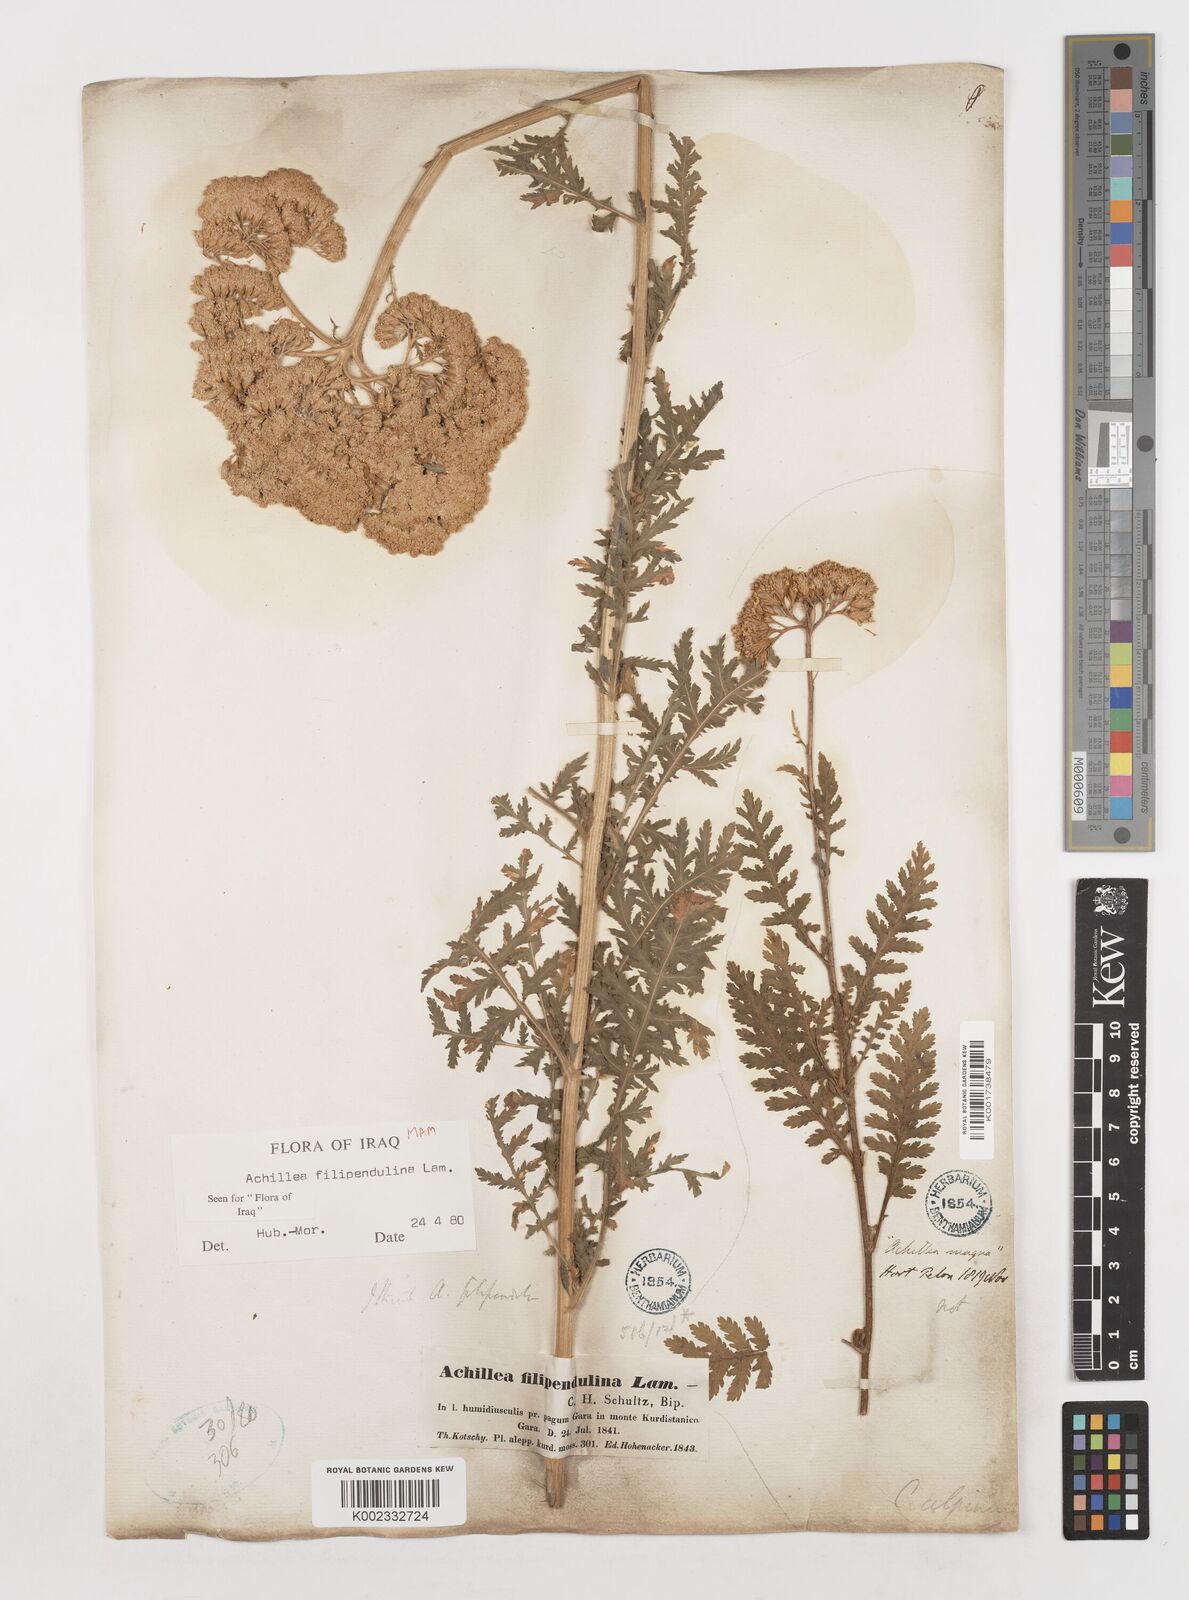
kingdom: Plantae
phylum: Tracheophyta
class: Magnoliopsida
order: Asterales
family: Asteraceae
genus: Achillea
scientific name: Achillea filipendulina
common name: Fernleaf yarrow
